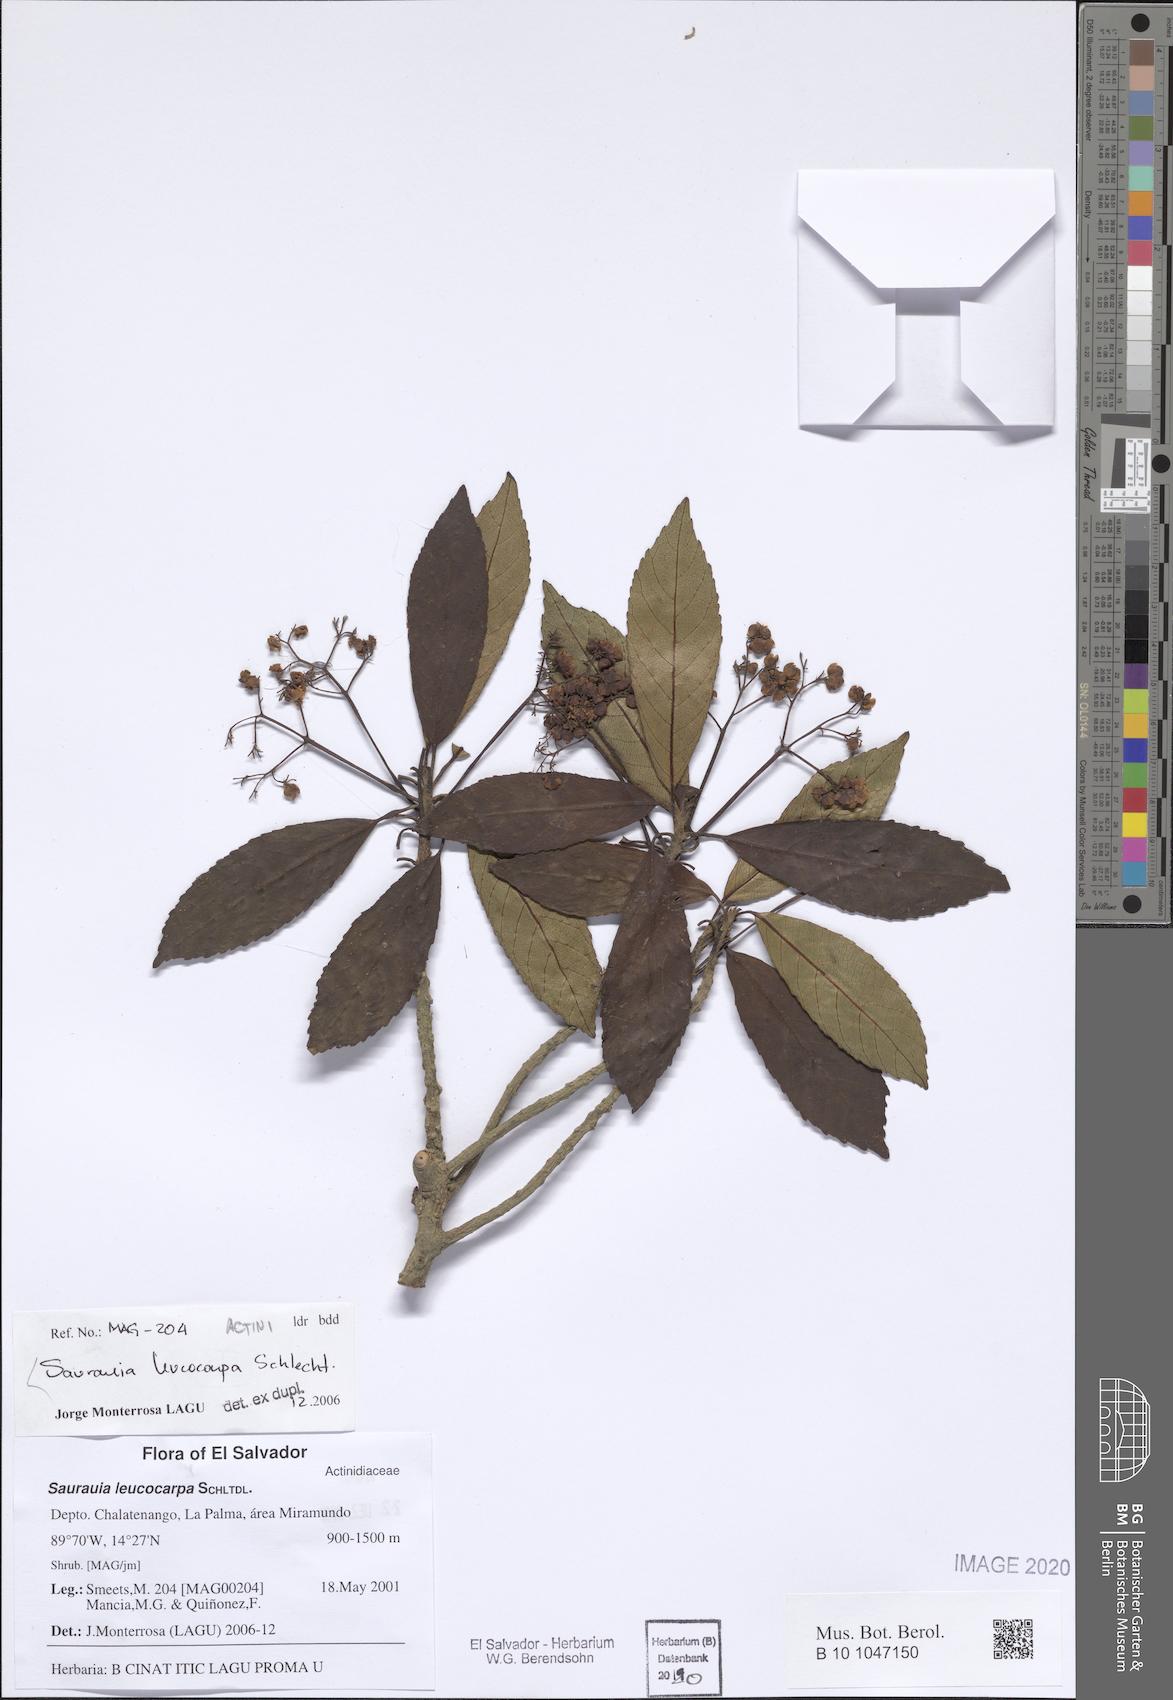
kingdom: Plantae
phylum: Tracheophyta
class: Magnoliopsida
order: Ericales
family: Actinidiaceae
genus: Saurauia
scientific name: Saurauia leucocarpa
